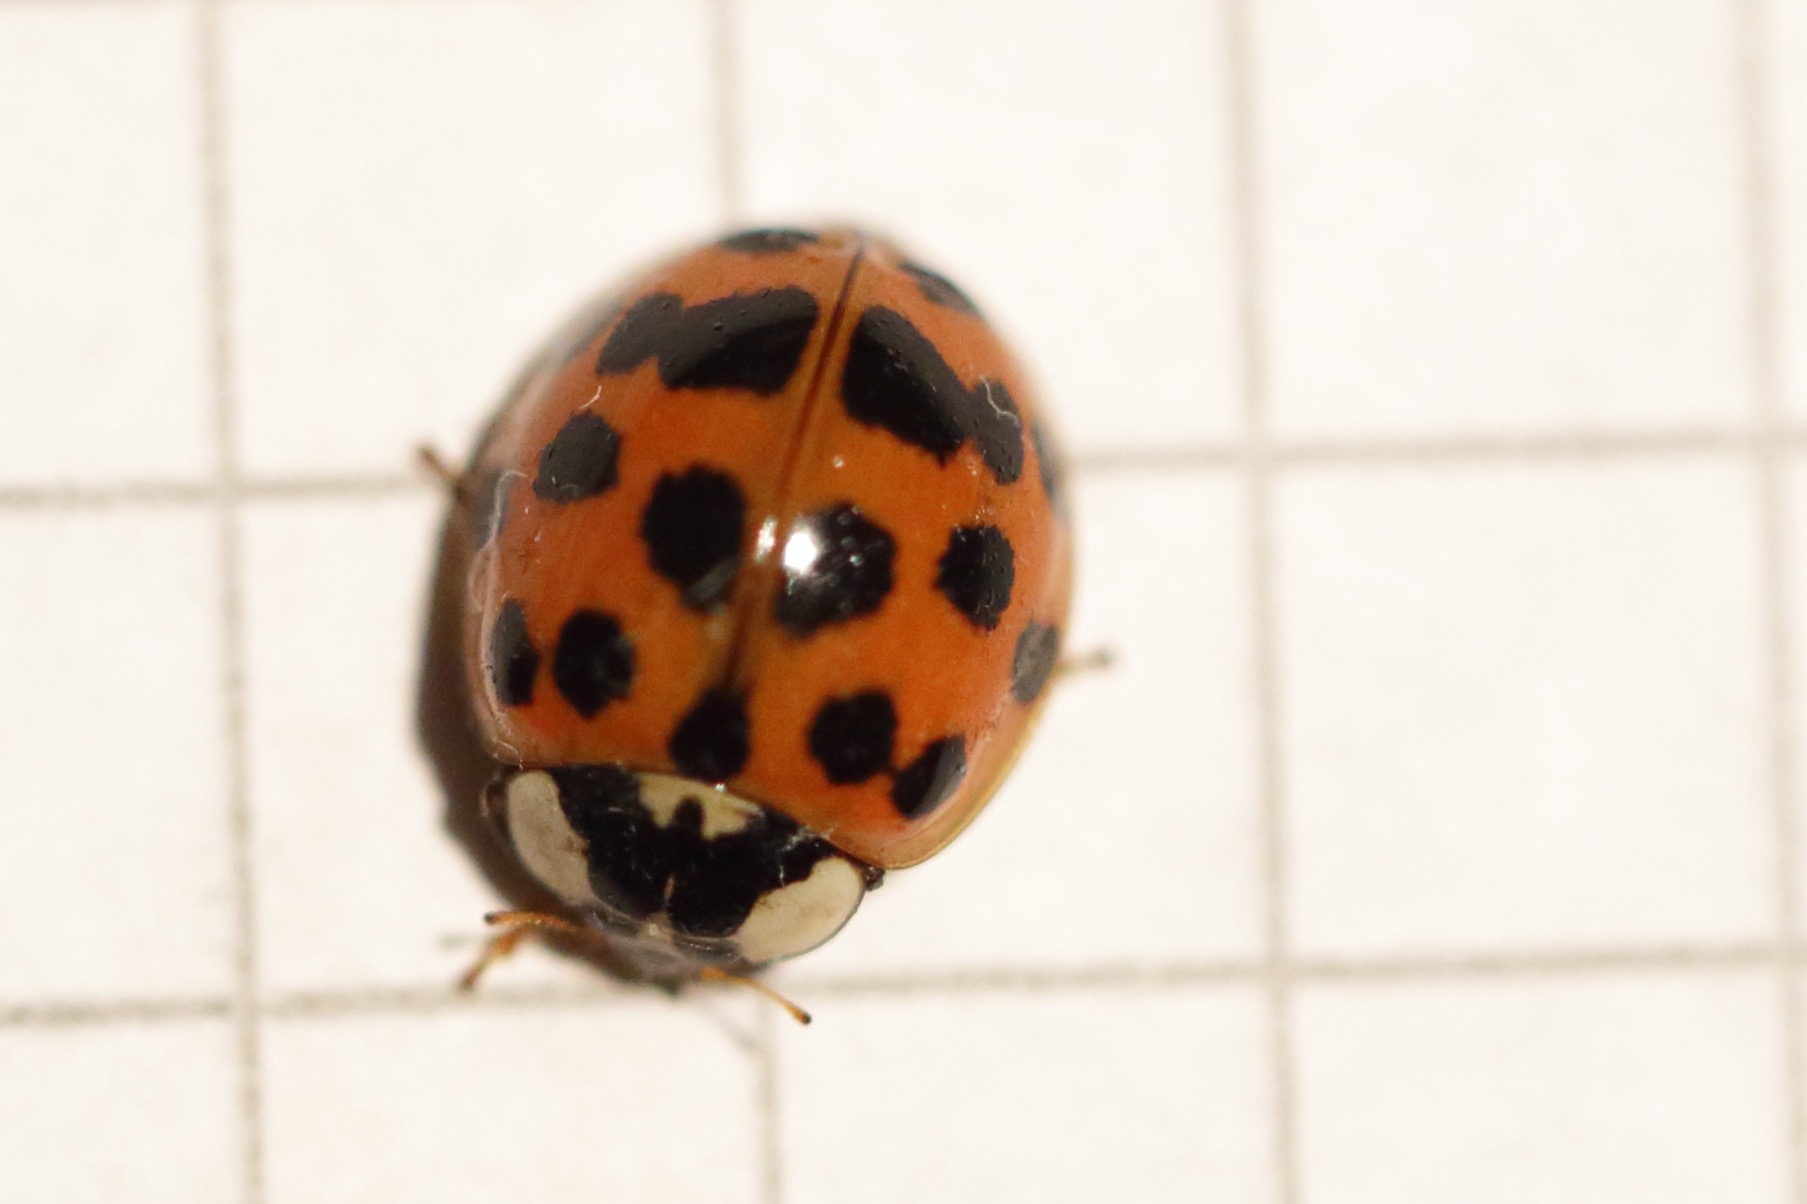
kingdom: Animalia
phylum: Arthropoda
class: Insecta
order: Coleoptera
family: Coccinellidae
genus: Harmonia
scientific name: Harmonia axyridis
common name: Harlekinmariehøne
